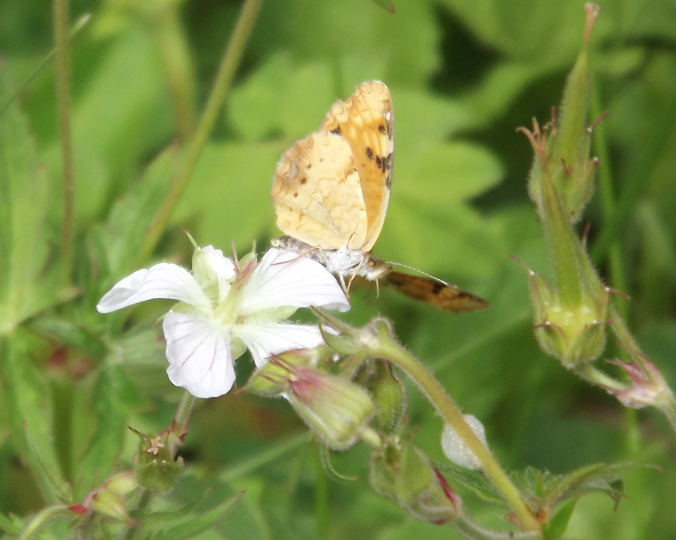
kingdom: Animalia
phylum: Arthropoda
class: Insecta
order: Lepidoptera
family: Nymphalidae
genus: Phyciodes
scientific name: Phyciodes batesii
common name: Tawny Crescent
